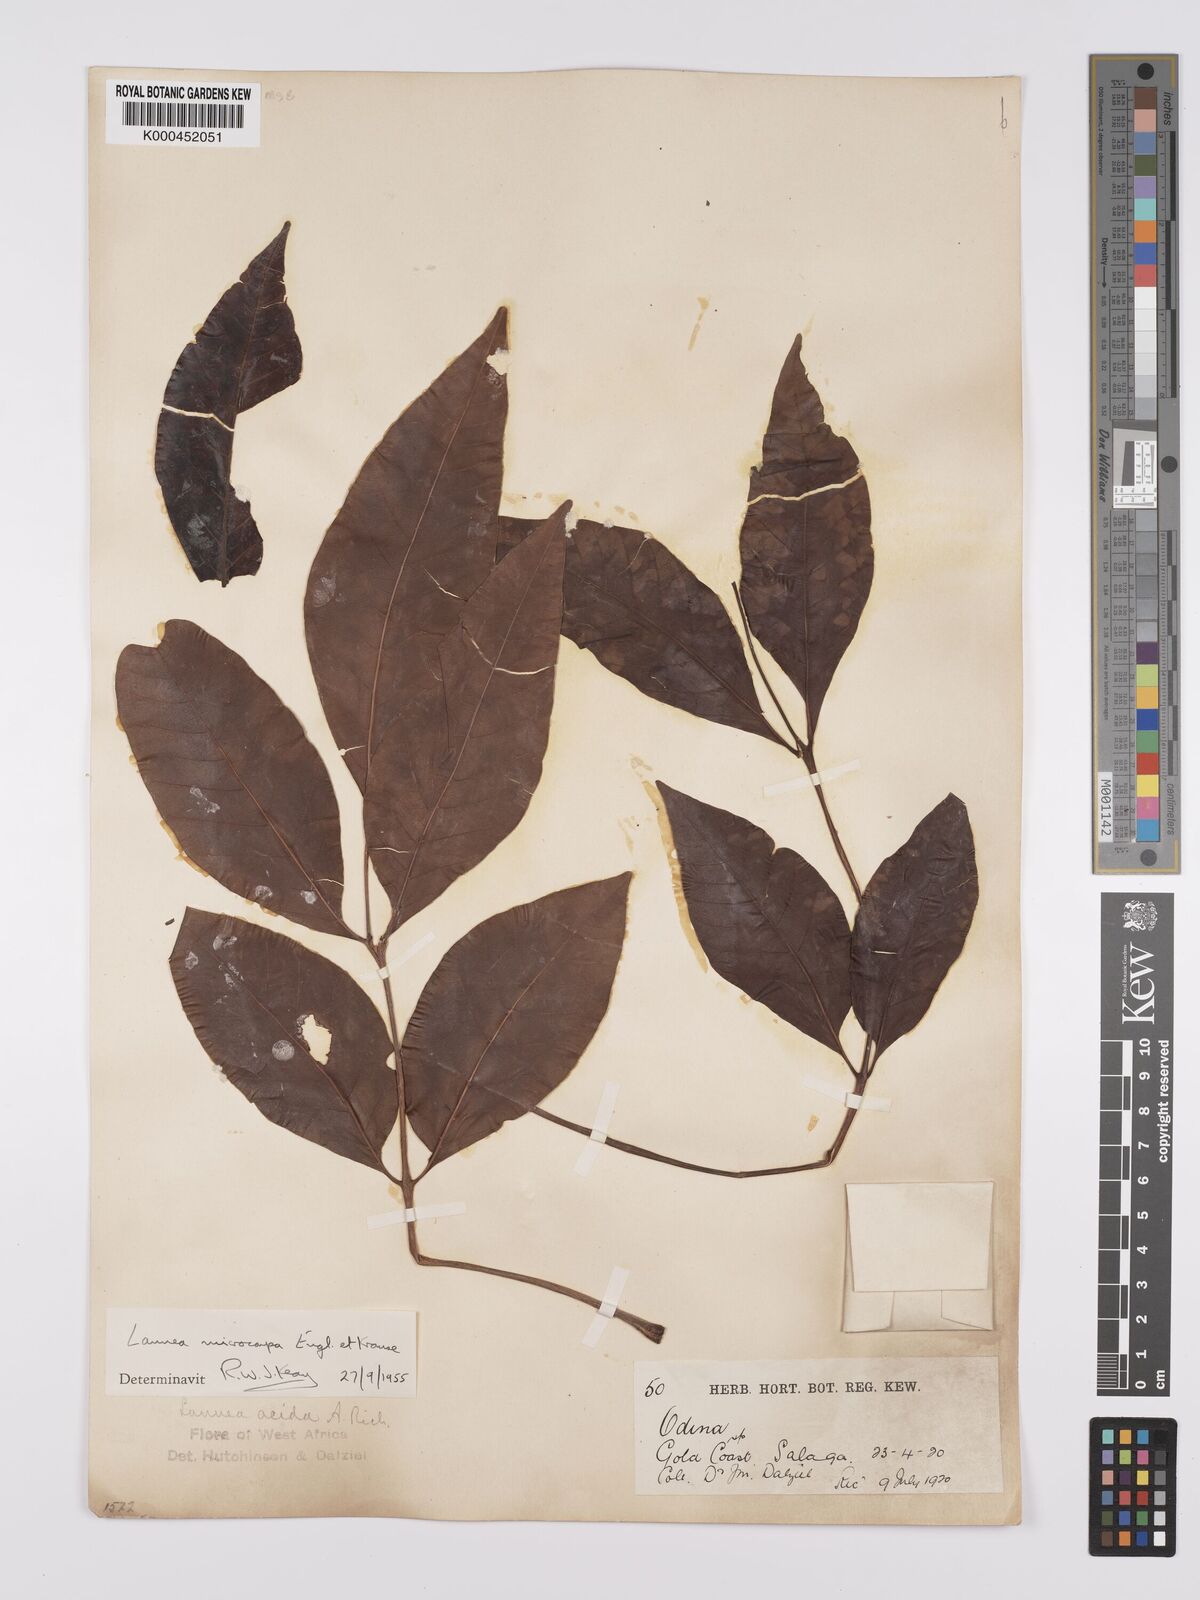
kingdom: Plantae
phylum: Tracheophyta
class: Magnoliopsida
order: Sapindales
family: Anacardiaceae
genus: Lannea
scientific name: Lannea microcarpa
